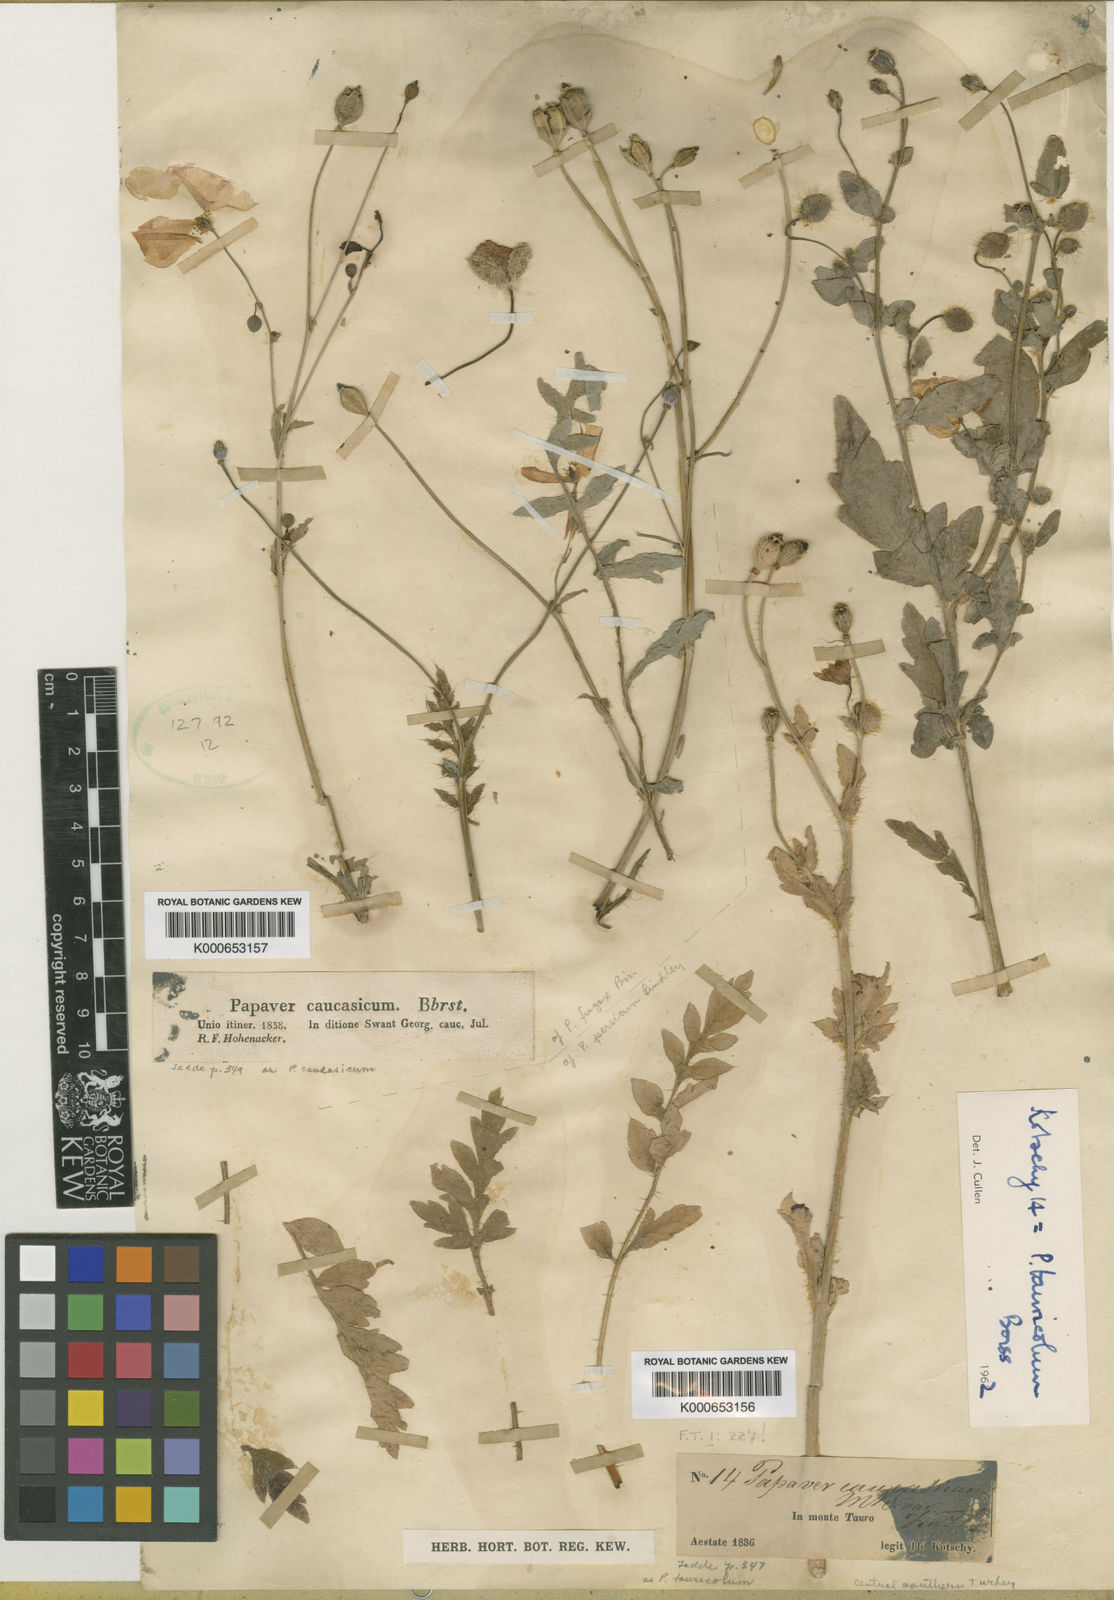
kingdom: Plantae
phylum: Tracheophyta
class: Magnoliopsida
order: Ranunculales
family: Papaveraceae
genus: Papaver
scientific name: Papaver persicum
